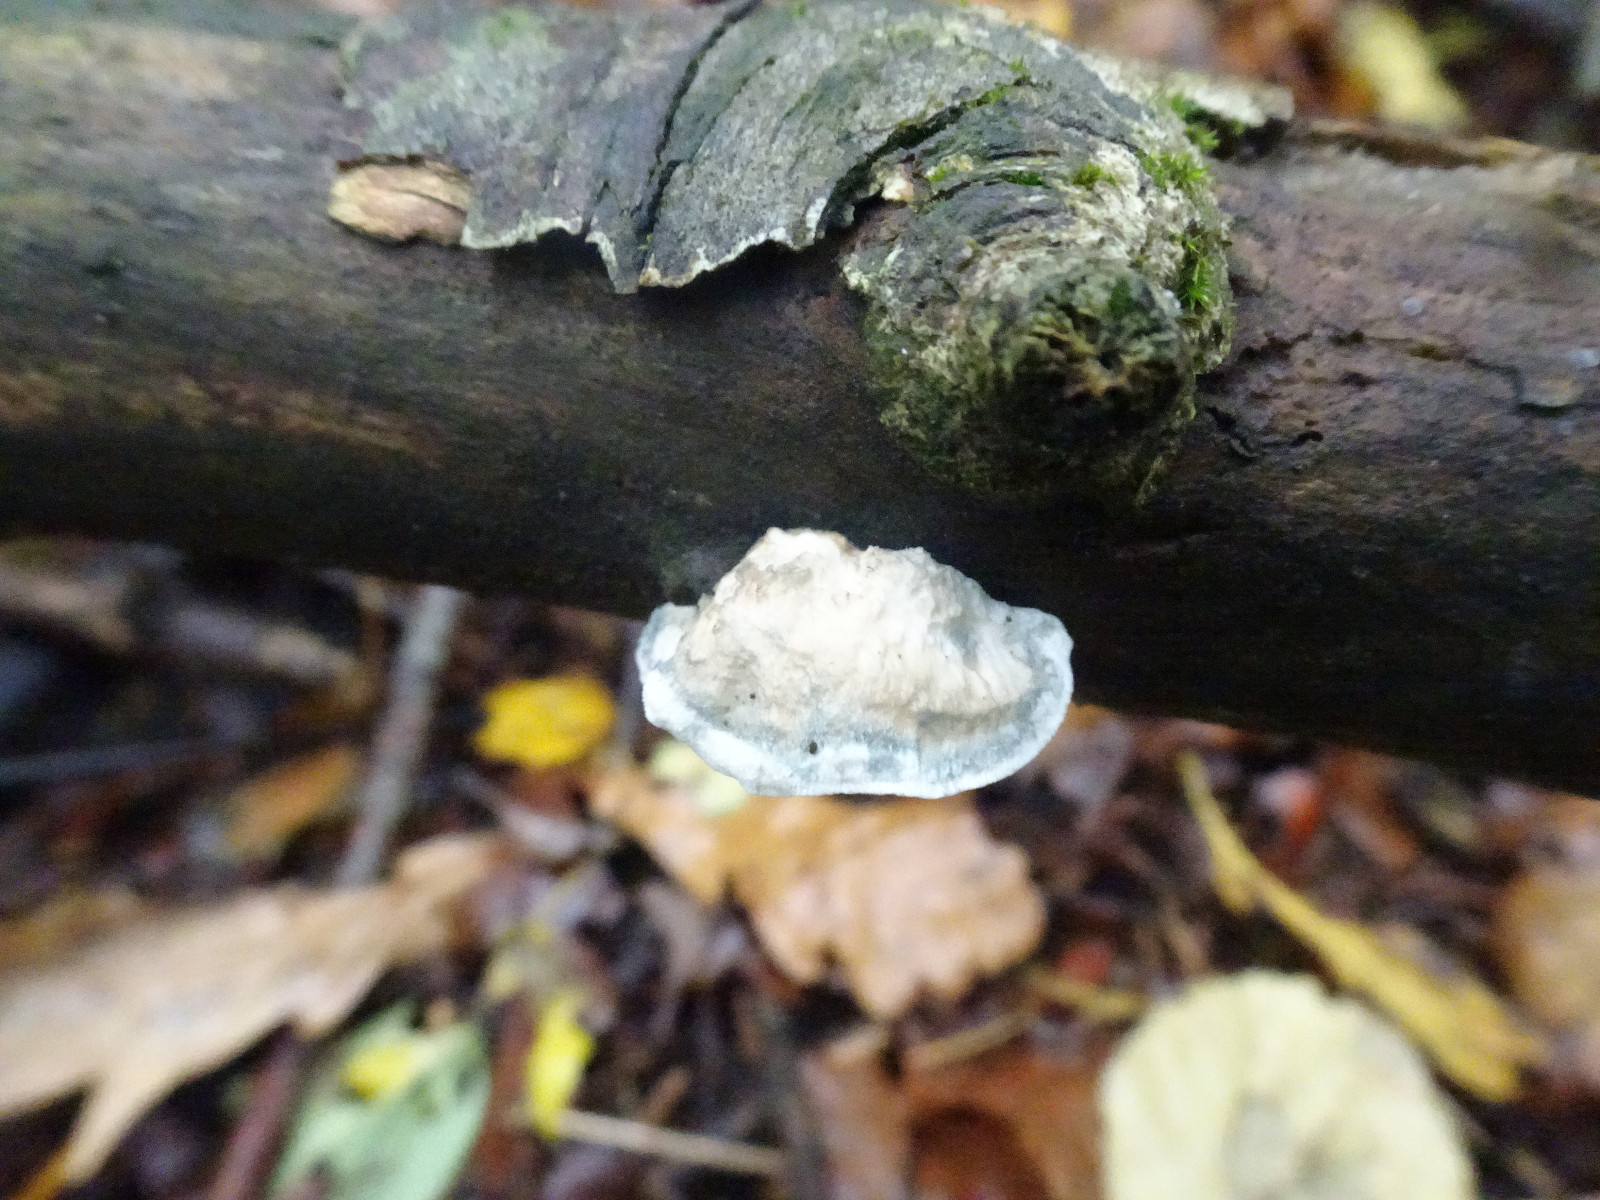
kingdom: Fungi
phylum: Basidiomycota
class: Agaricomycetes
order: Polyporales
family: Polyporaceae
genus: Cyanosporus
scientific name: Cyanosporus alni
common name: blegblå kødporesvamp
